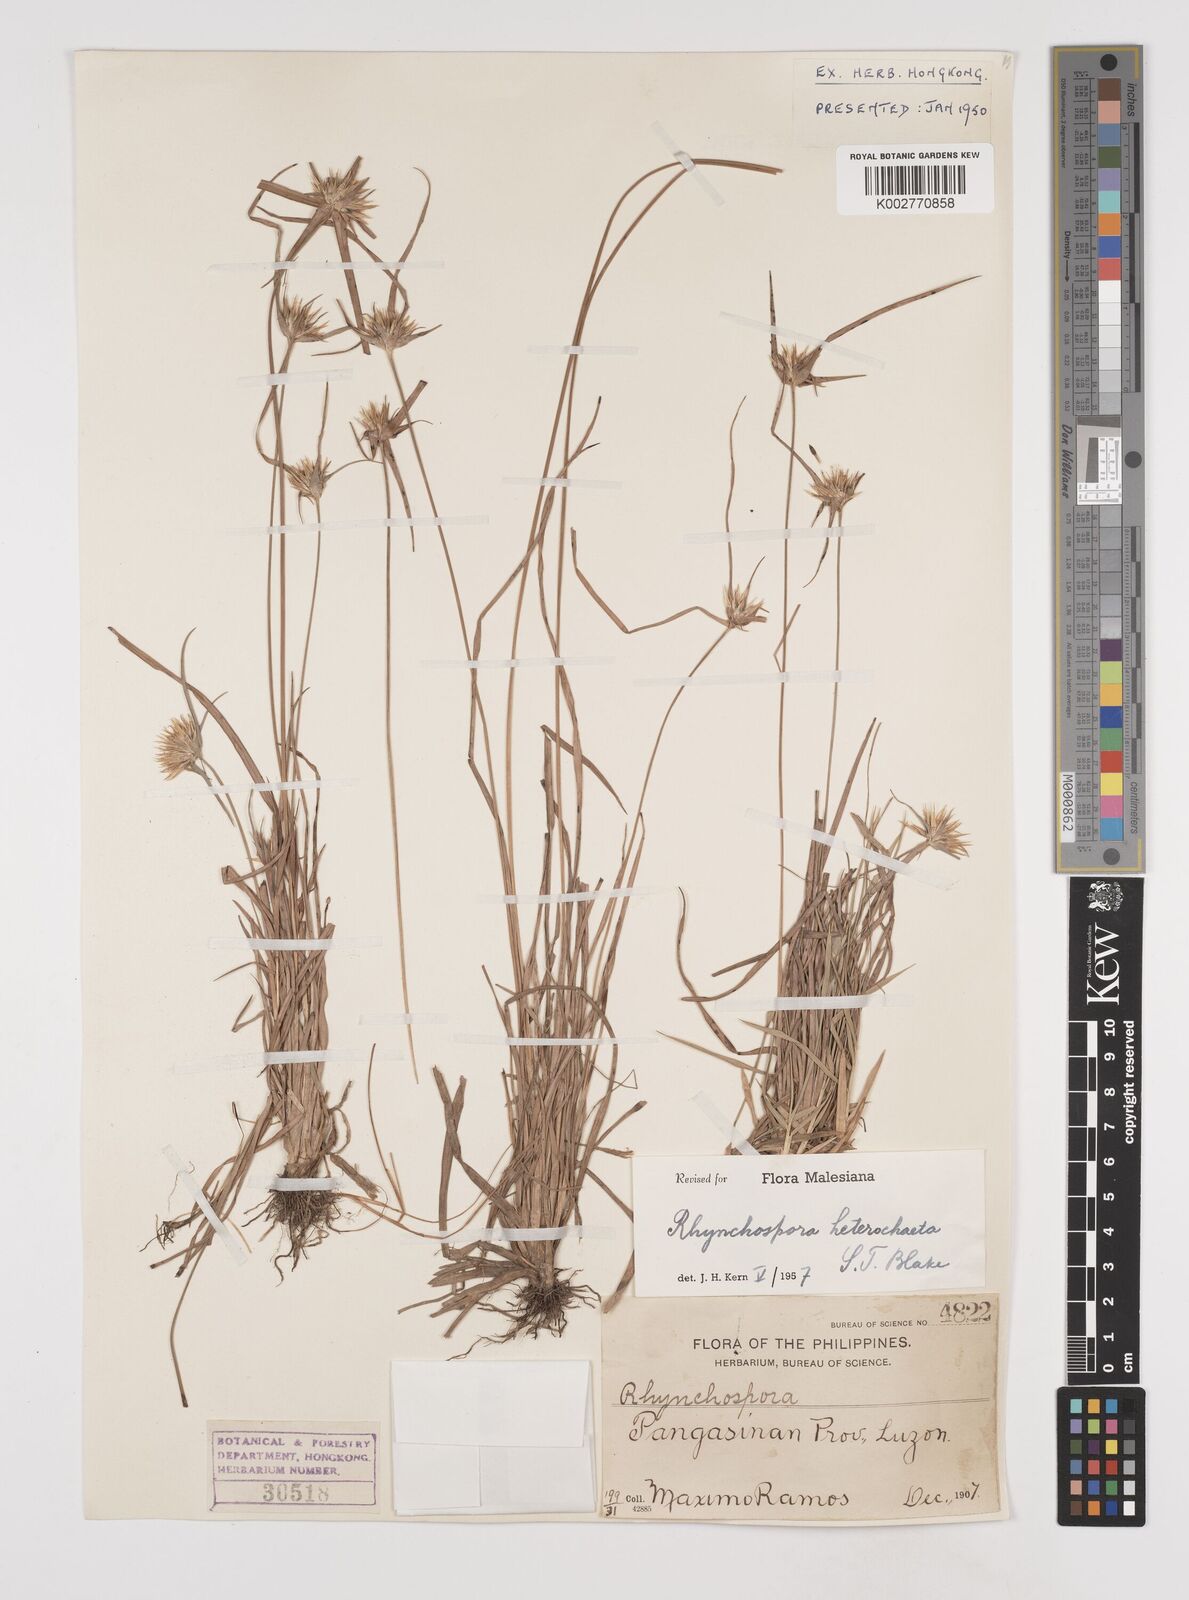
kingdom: Plantae
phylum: Tracheophyta
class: Liliopsida
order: Poales
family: Cyperaceae
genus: Rhynchospora
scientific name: Rhynchospora heterochaeta
